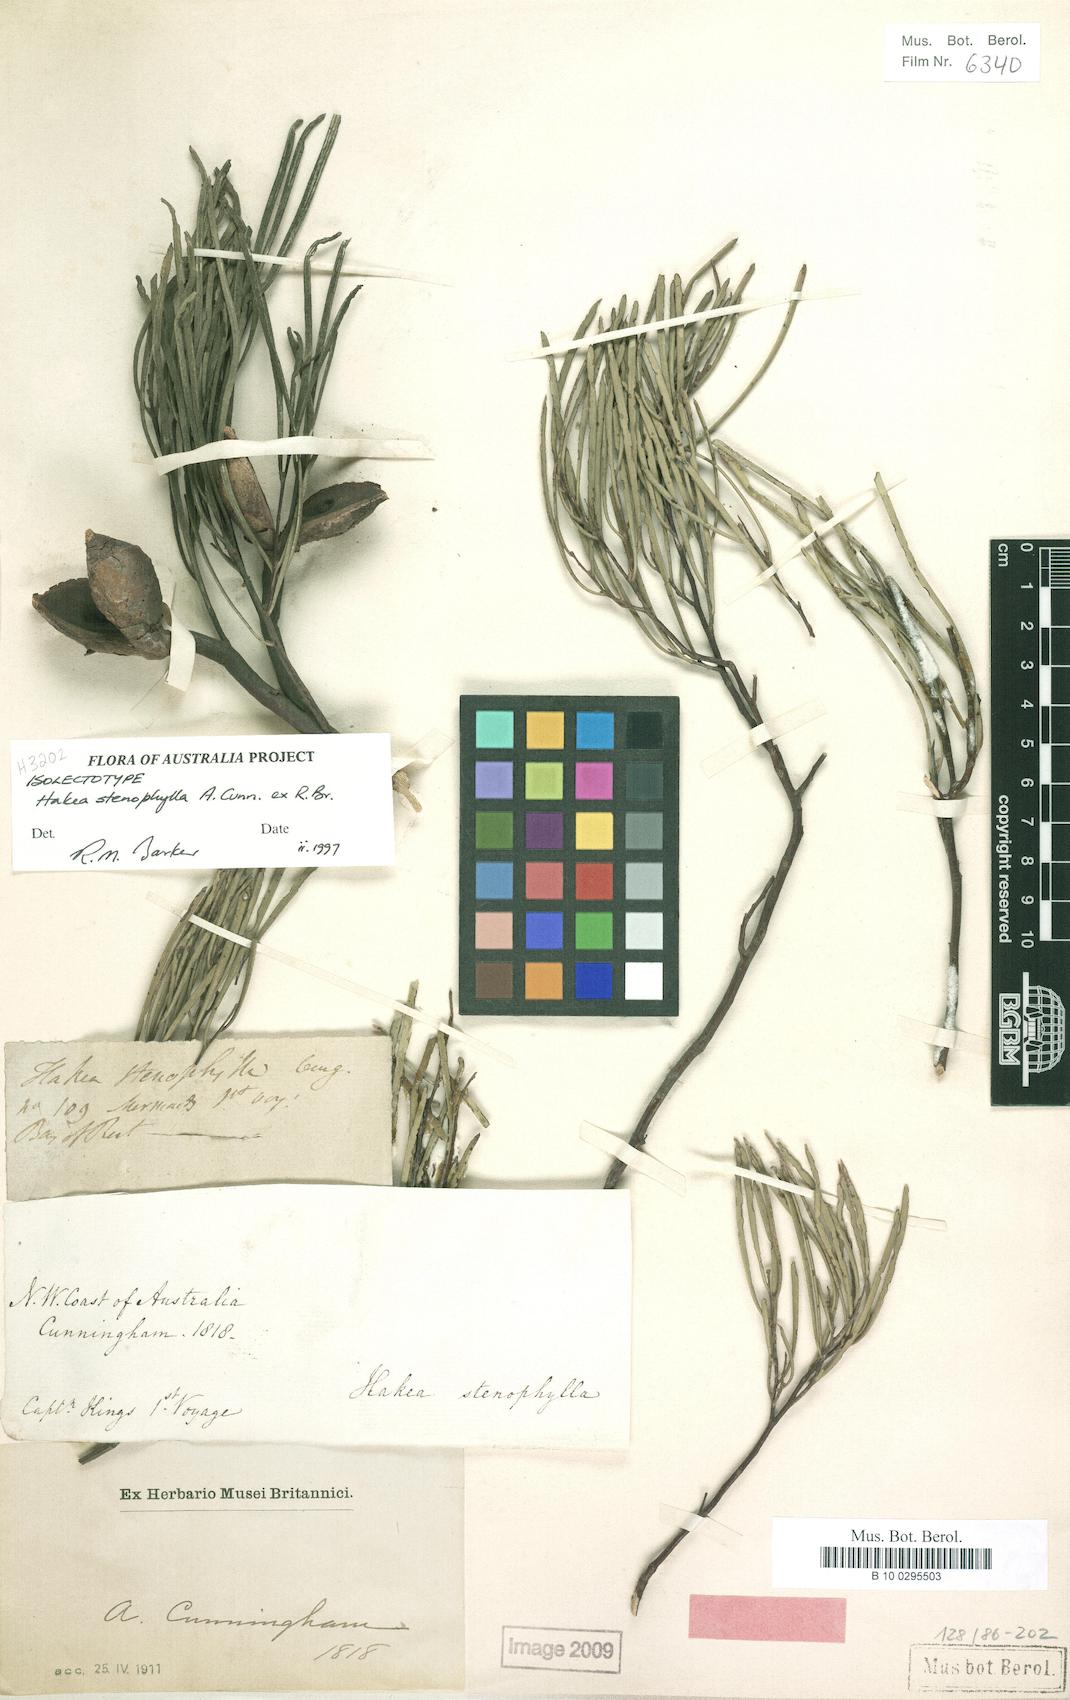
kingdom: Plantae
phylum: Tracheophyta
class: Magnoliopsida
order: Proteales
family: Proteaceae
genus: Hakea
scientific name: Hakea stenophylla
